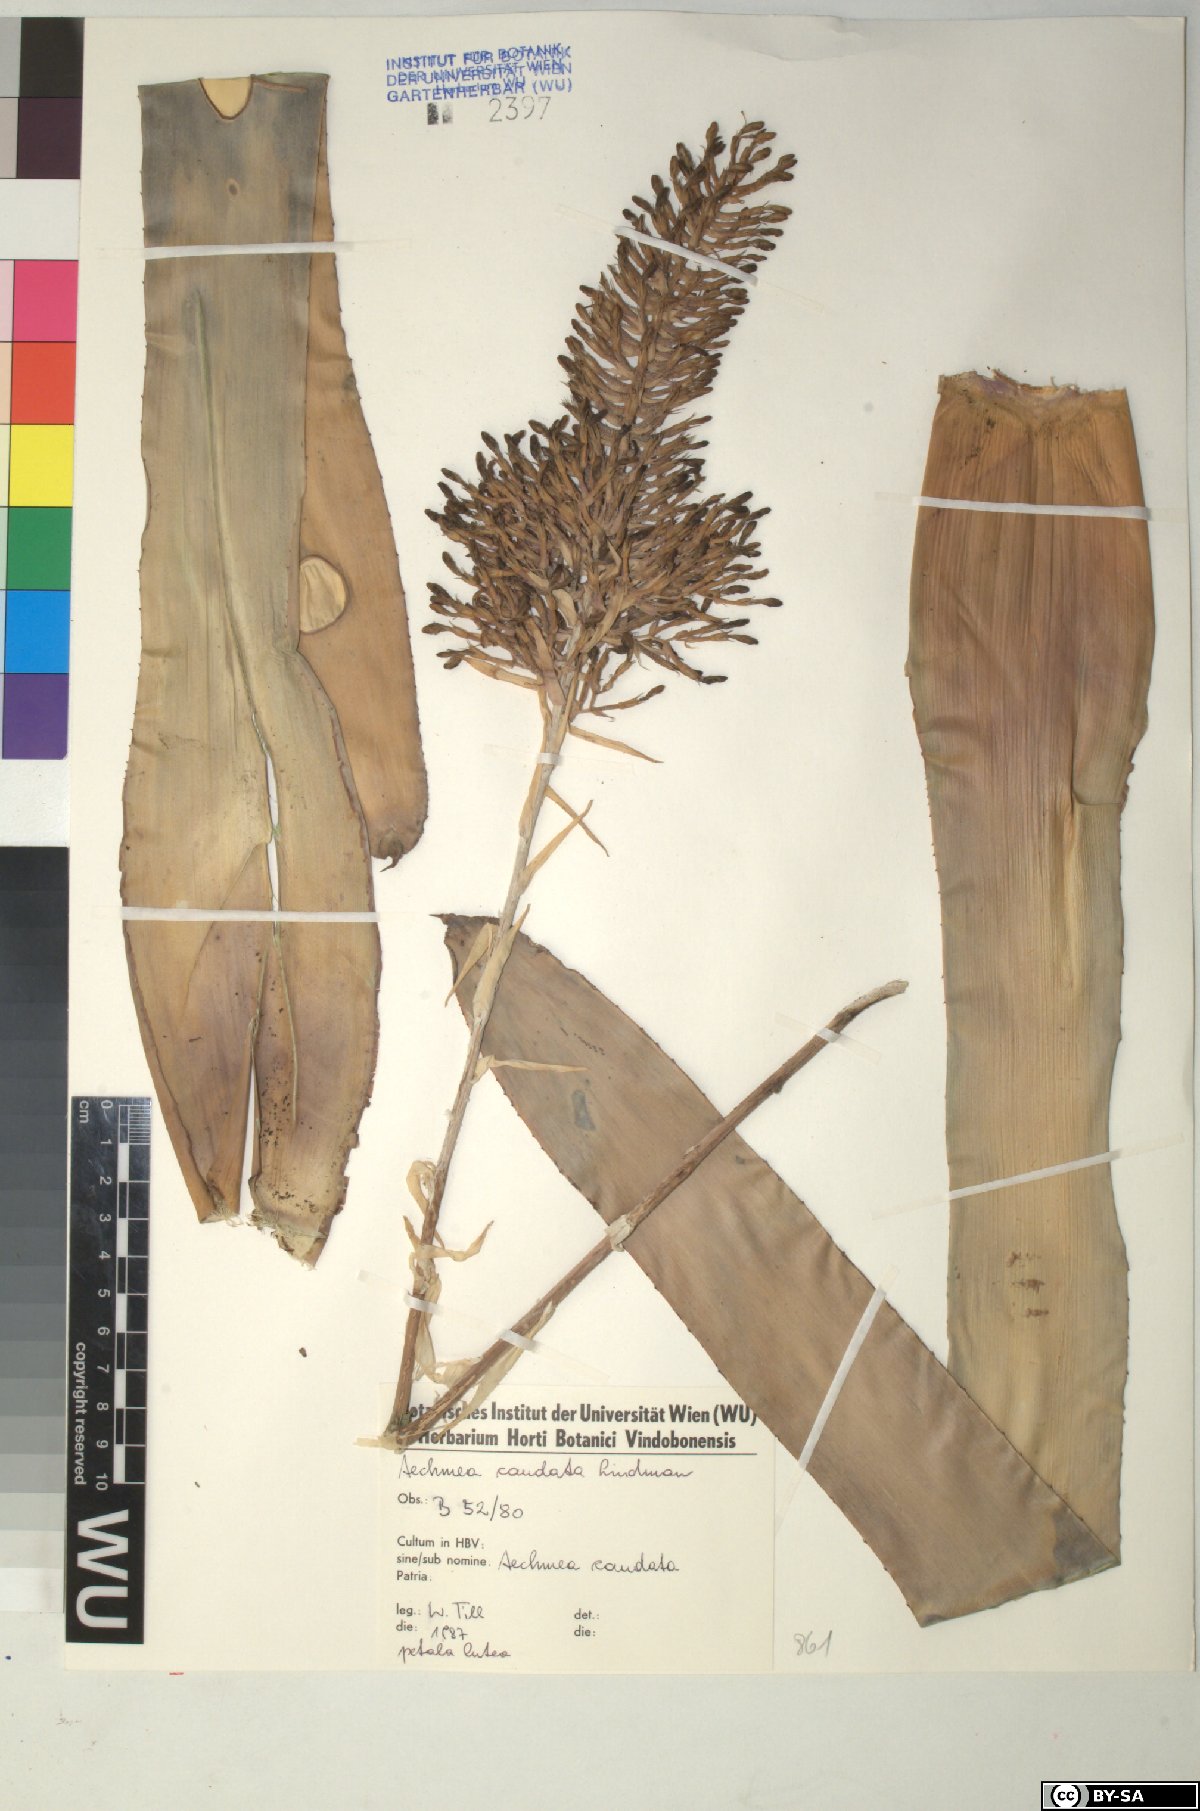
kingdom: Plantae
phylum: Tracheophyta
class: Liliopsida
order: Poales
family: Bromeliaceae
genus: Aechmea
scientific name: Aechmea caudata
